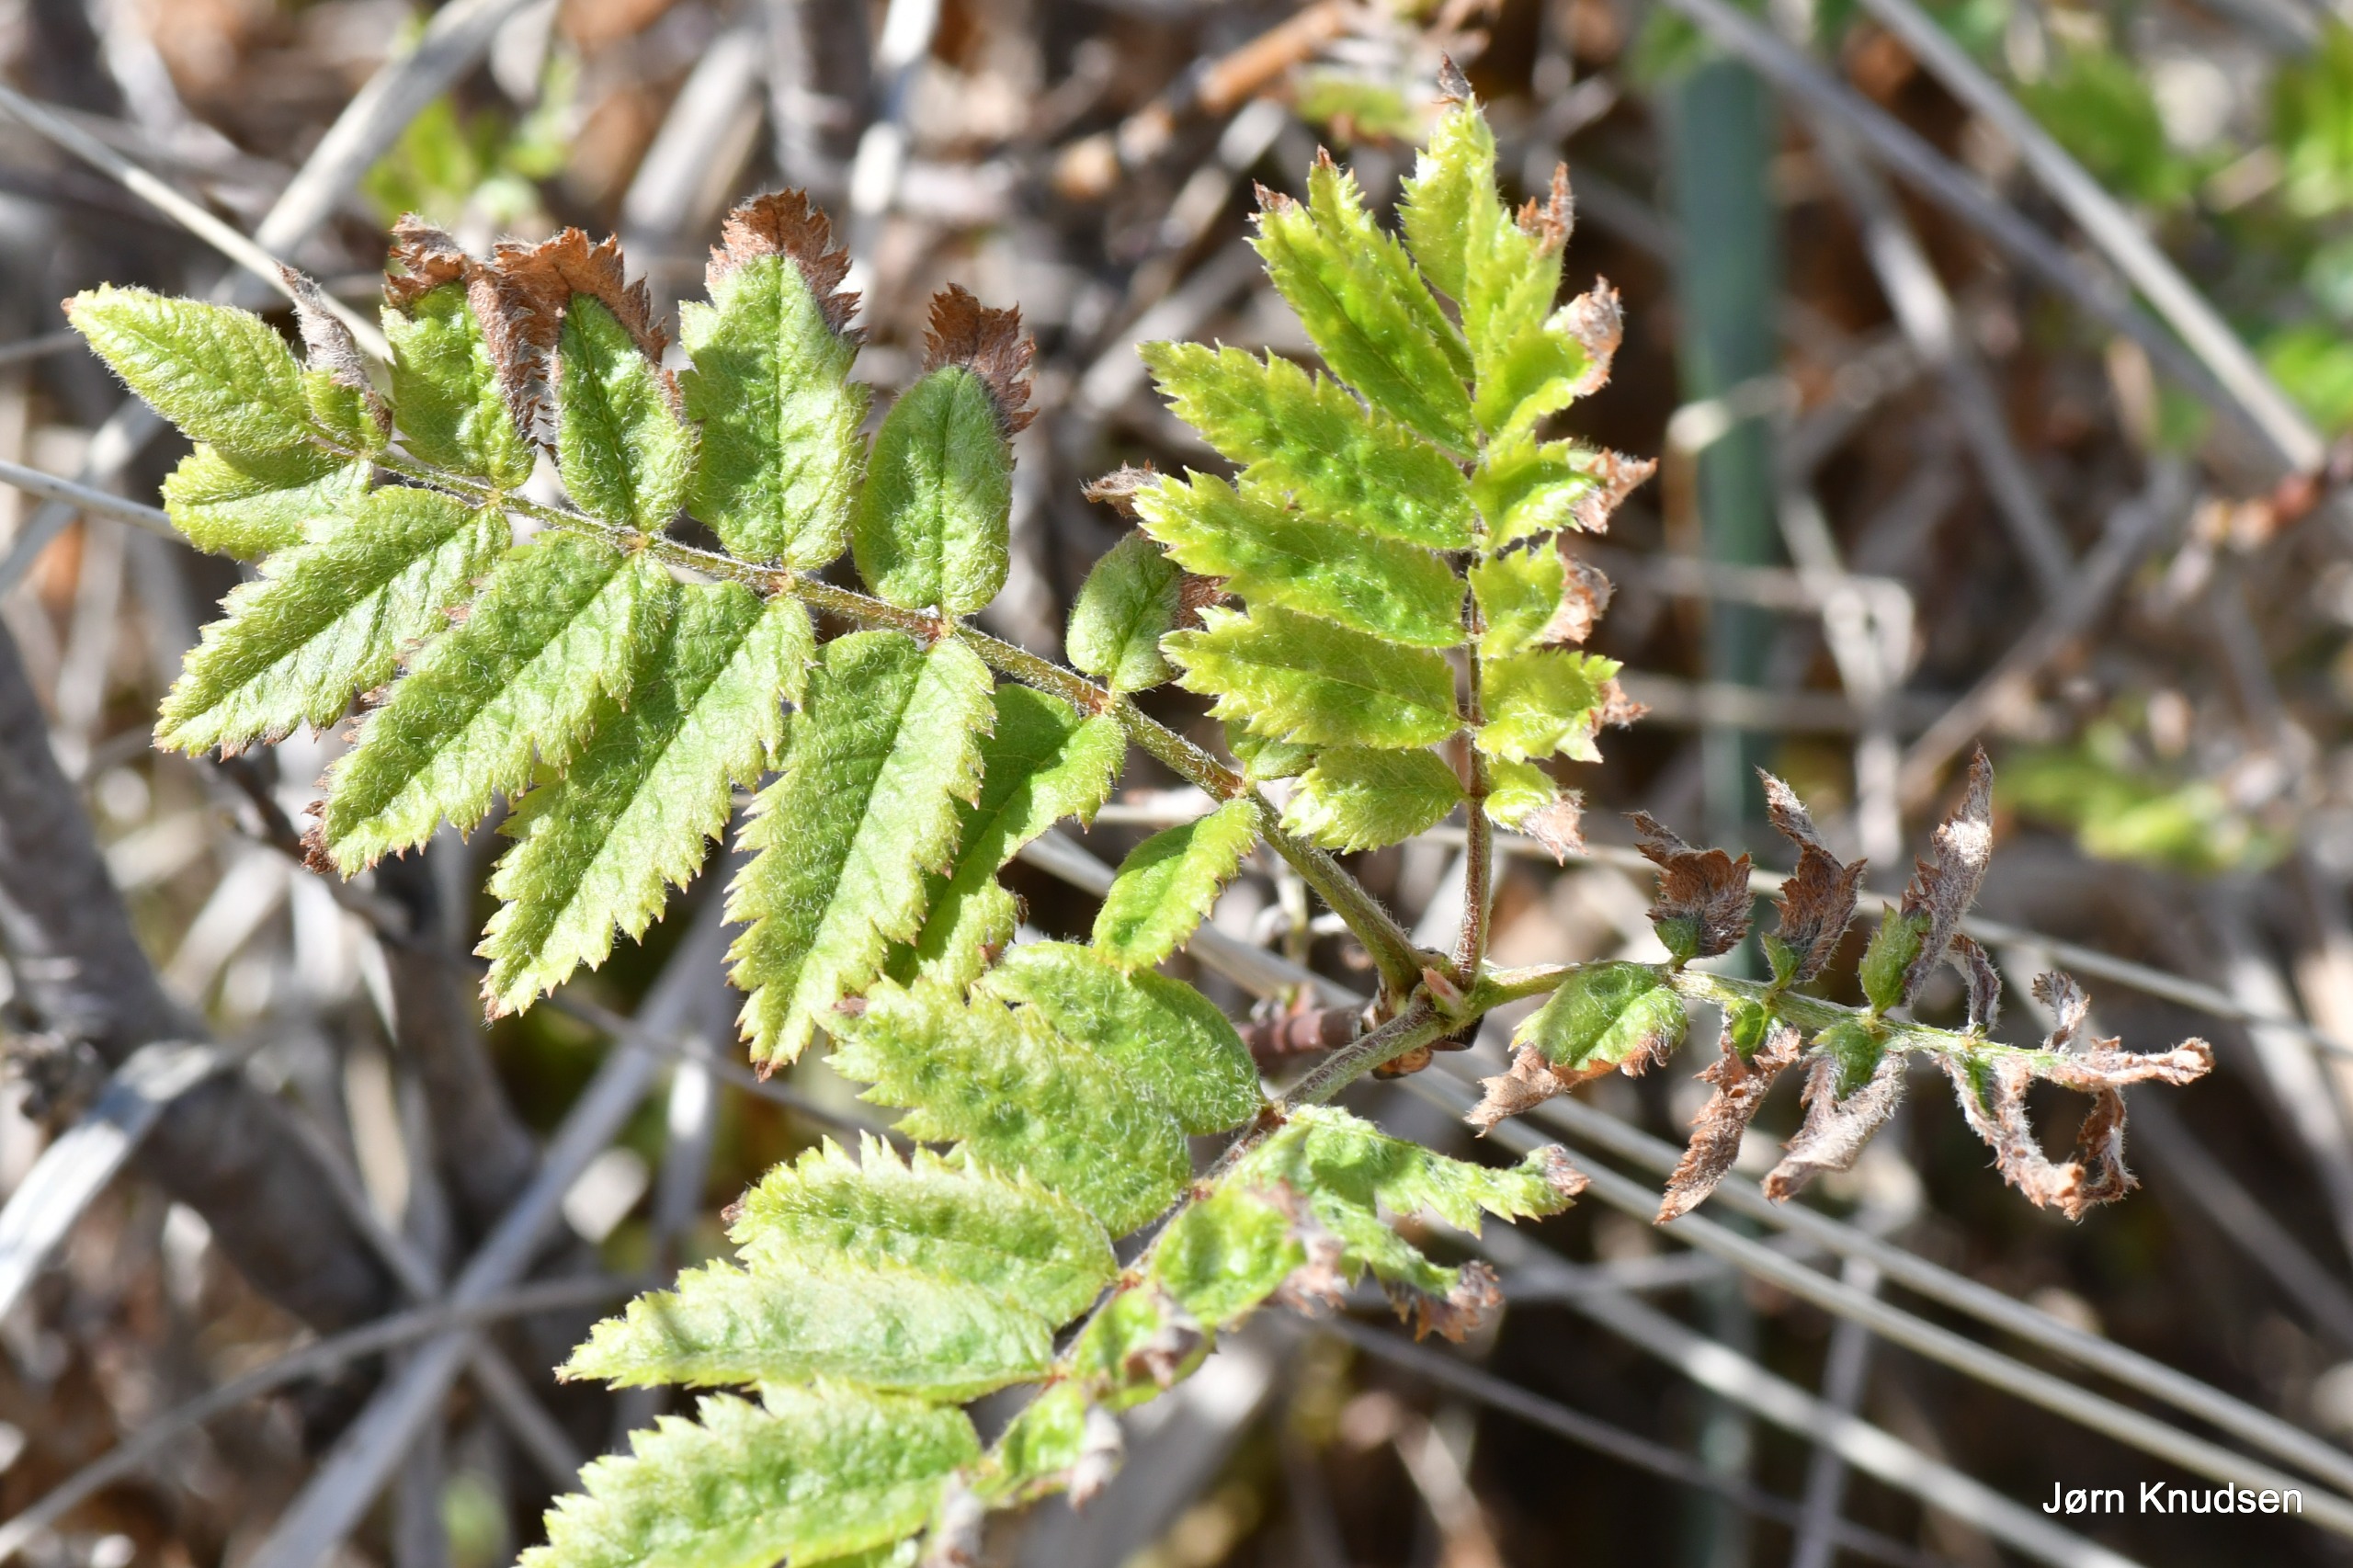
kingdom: Plantae
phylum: Tracheophyta
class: Magnoliopsida
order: Rosales
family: Rosaceae
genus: Sorbus
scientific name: Sorbus aucuparia
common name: Almindelig røn
